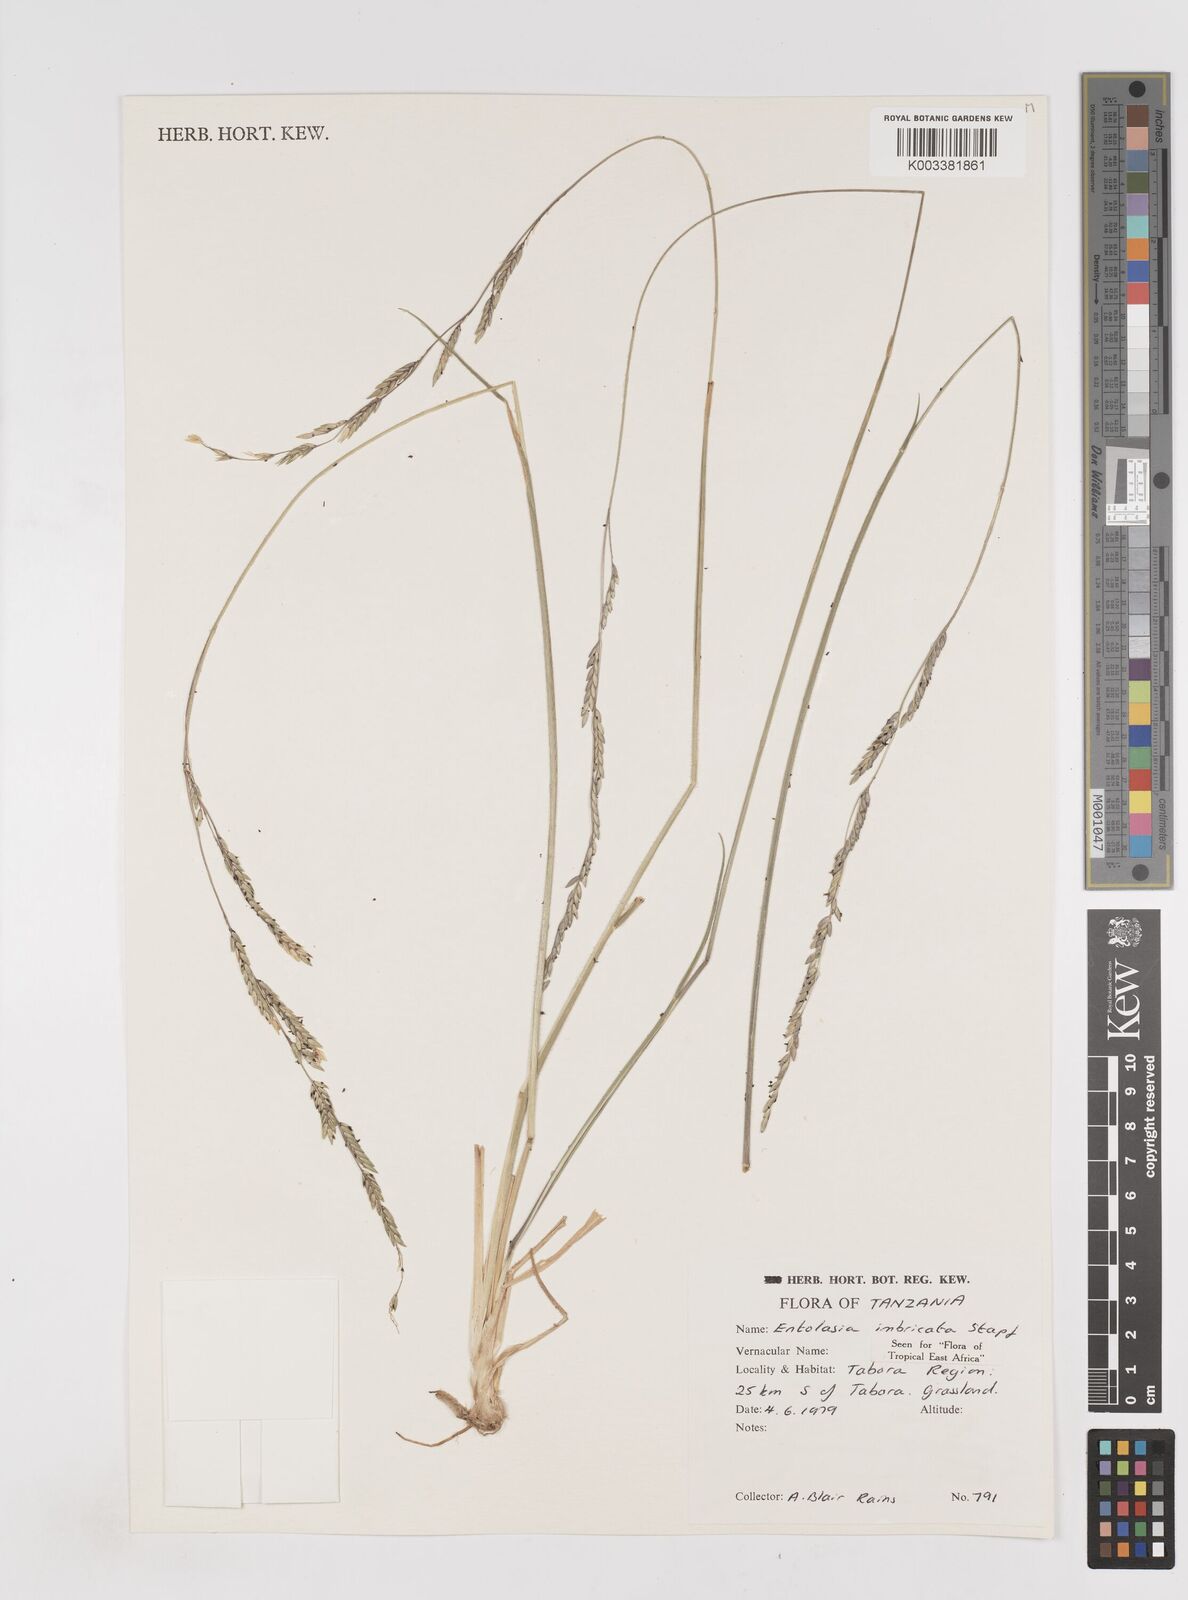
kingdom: Plantae
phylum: Tracheophyta
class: Liliopsida
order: Poales
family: Poaceae
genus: Entolasia
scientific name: Entolasia imbricata
